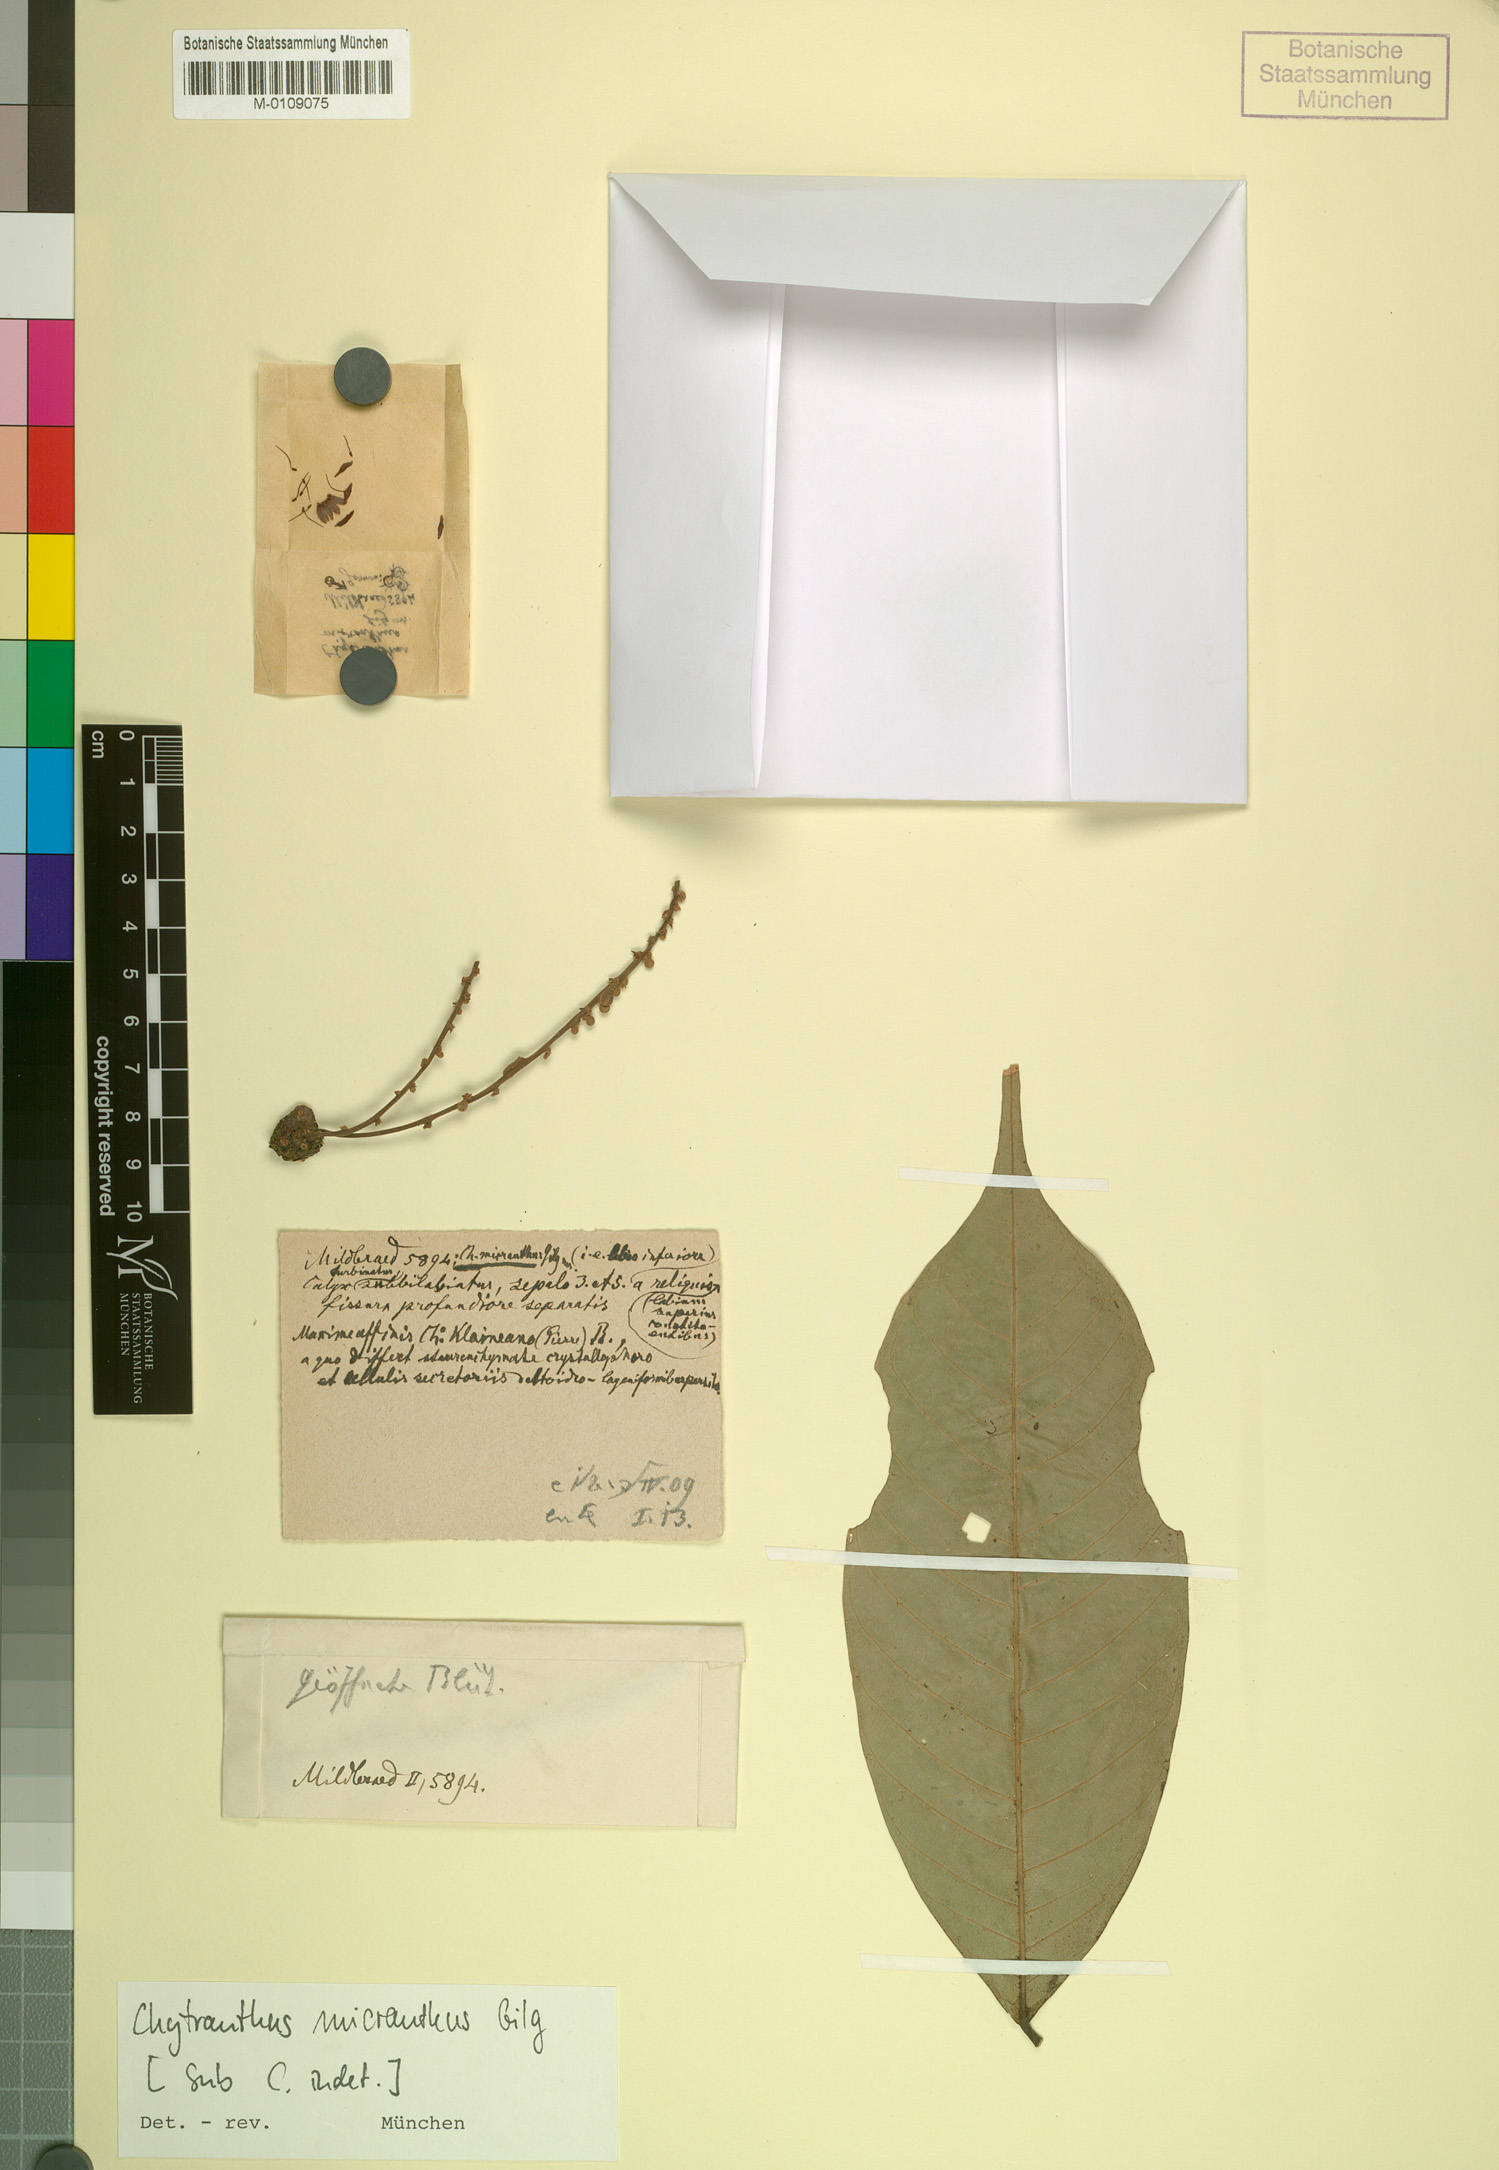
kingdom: Plantae
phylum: Tracheophyta
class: Magnoliopsida
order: Sapindales
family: Sapindaceae
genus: Chytranthus
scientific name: Chytranthus micranthus
